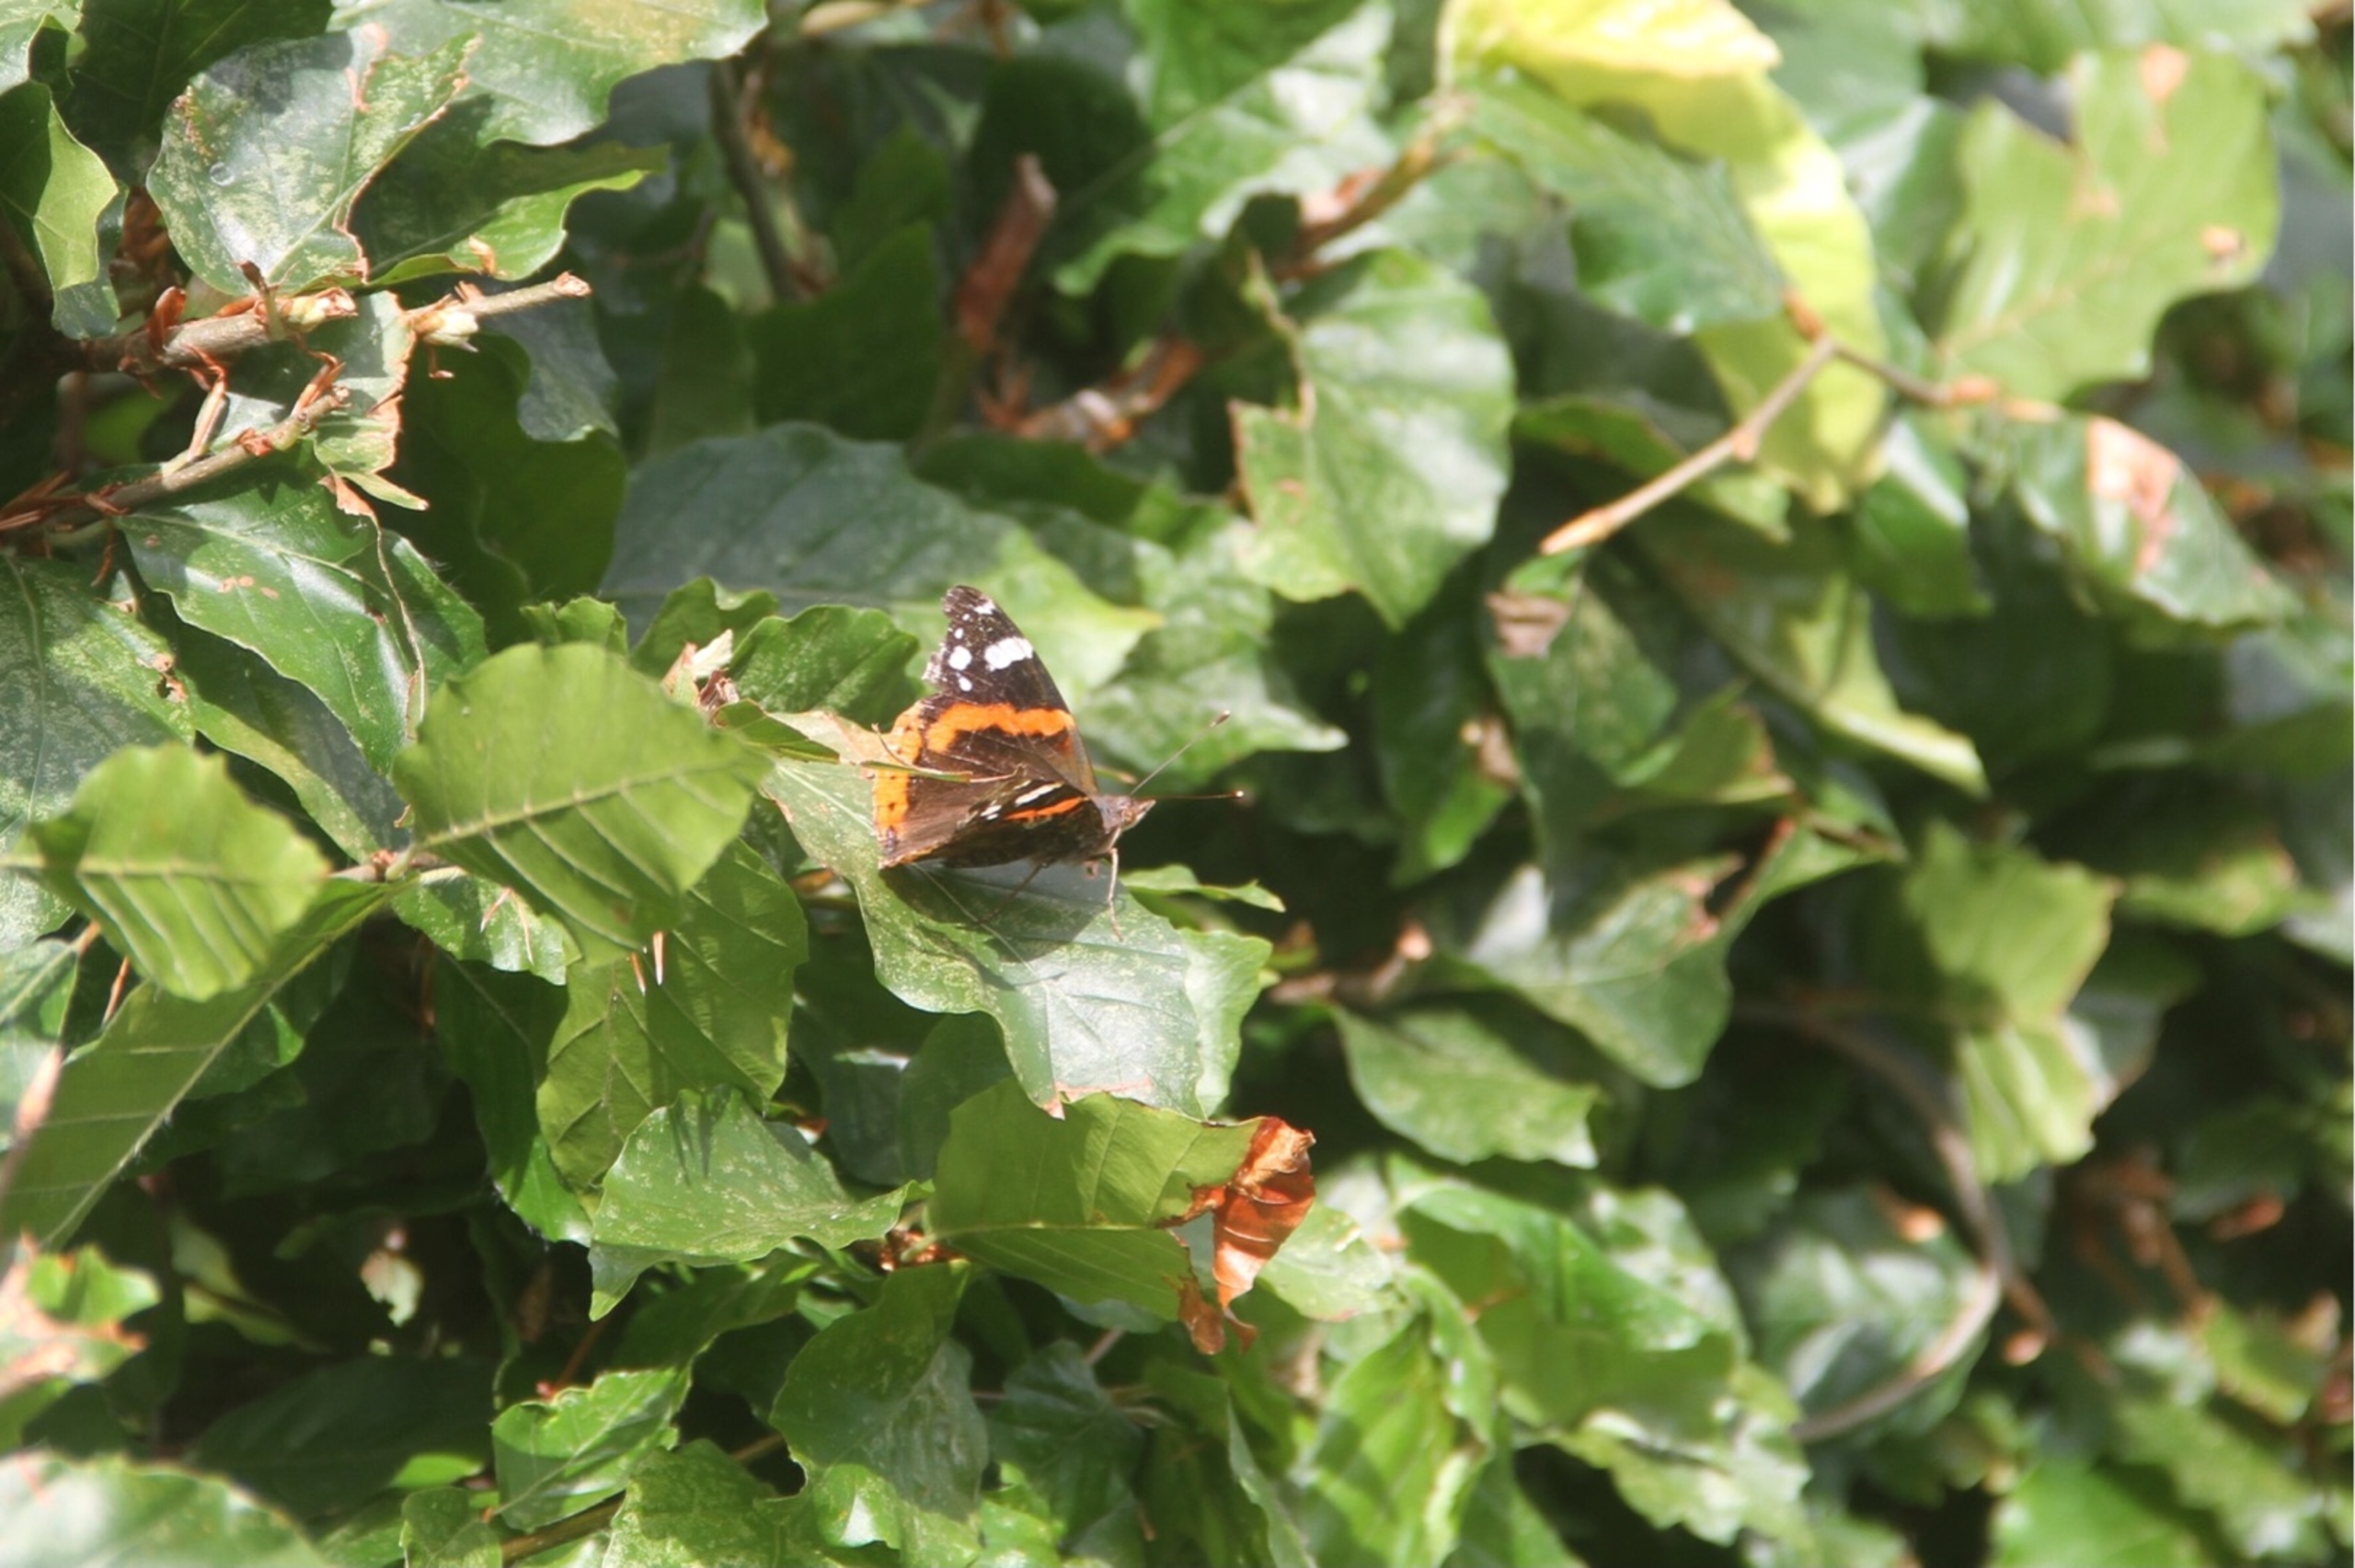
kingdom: Animalia
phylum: Arthropoda
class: Insecta
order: Lepidoptera
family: Nymphalidae
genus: Vanessa
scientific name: Vanessa atalanta
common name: Admiral
